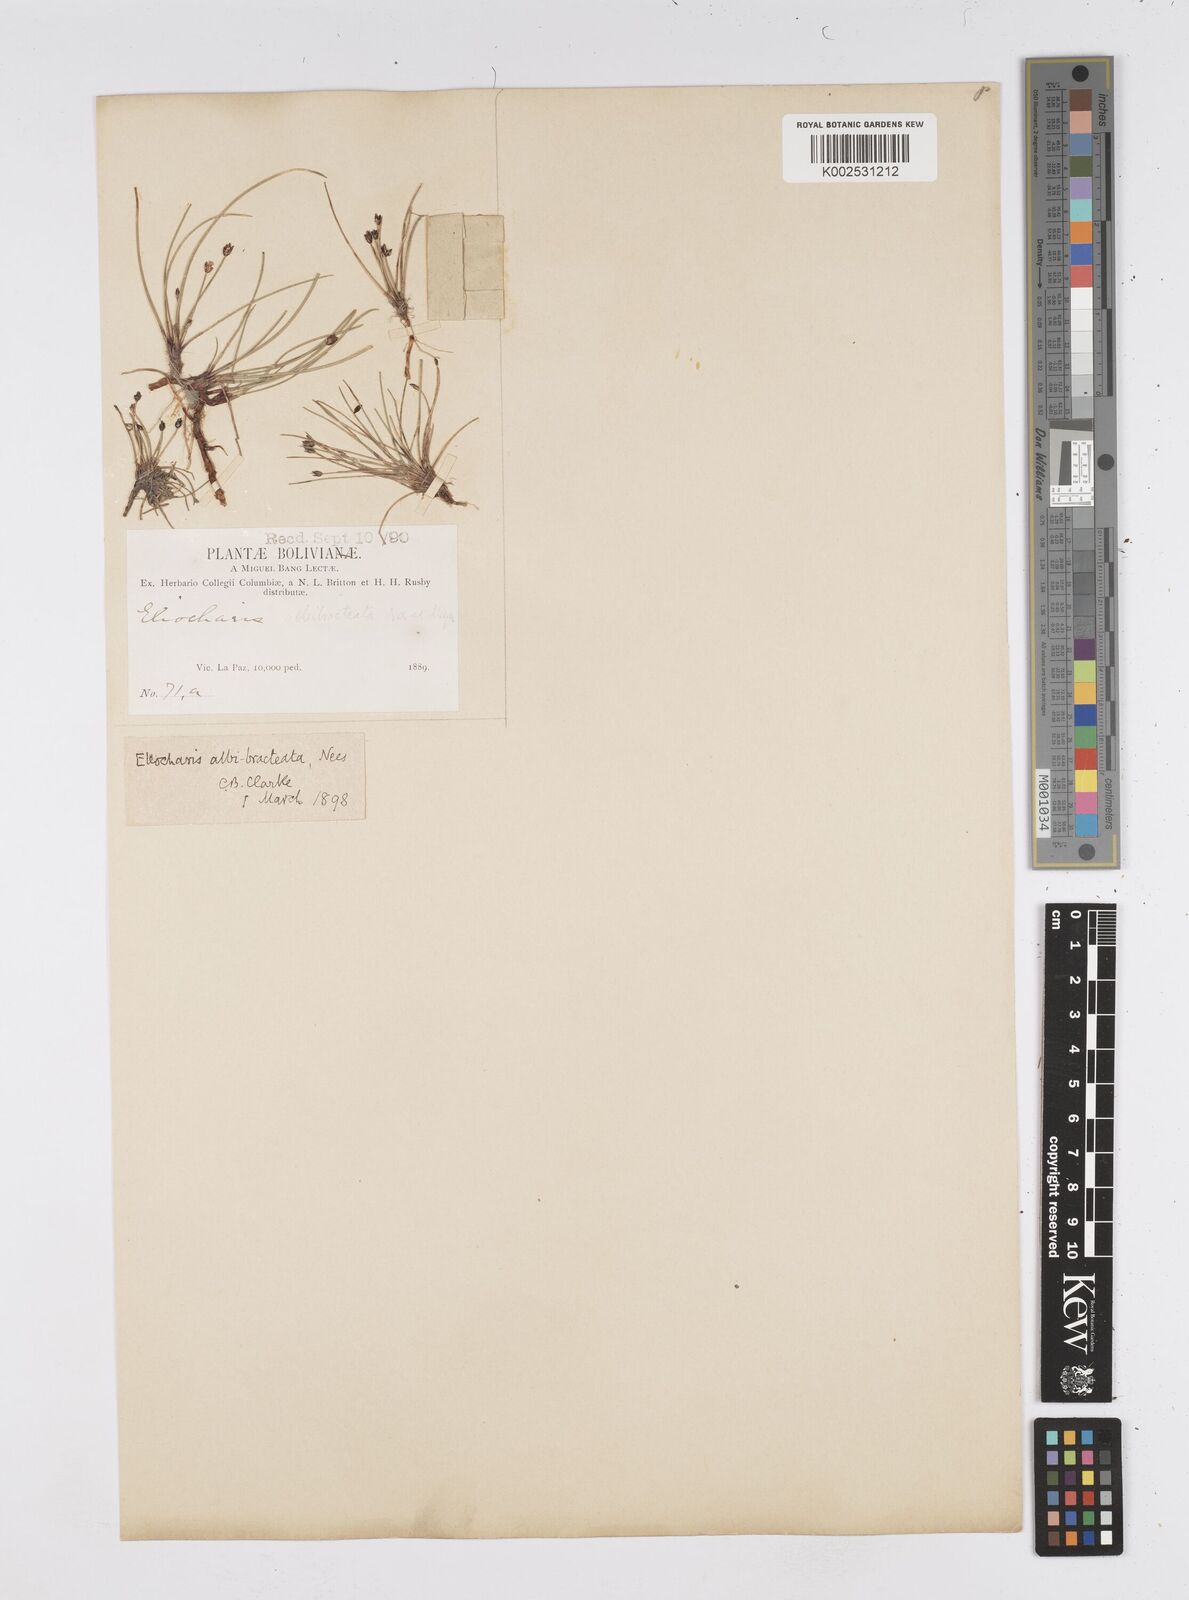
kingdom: Plantae
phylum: Tracheophyta
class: Liliopsida
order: Poales
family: Cyperaceae
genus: Eleocharis
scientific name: Eleocharis albibracteata
